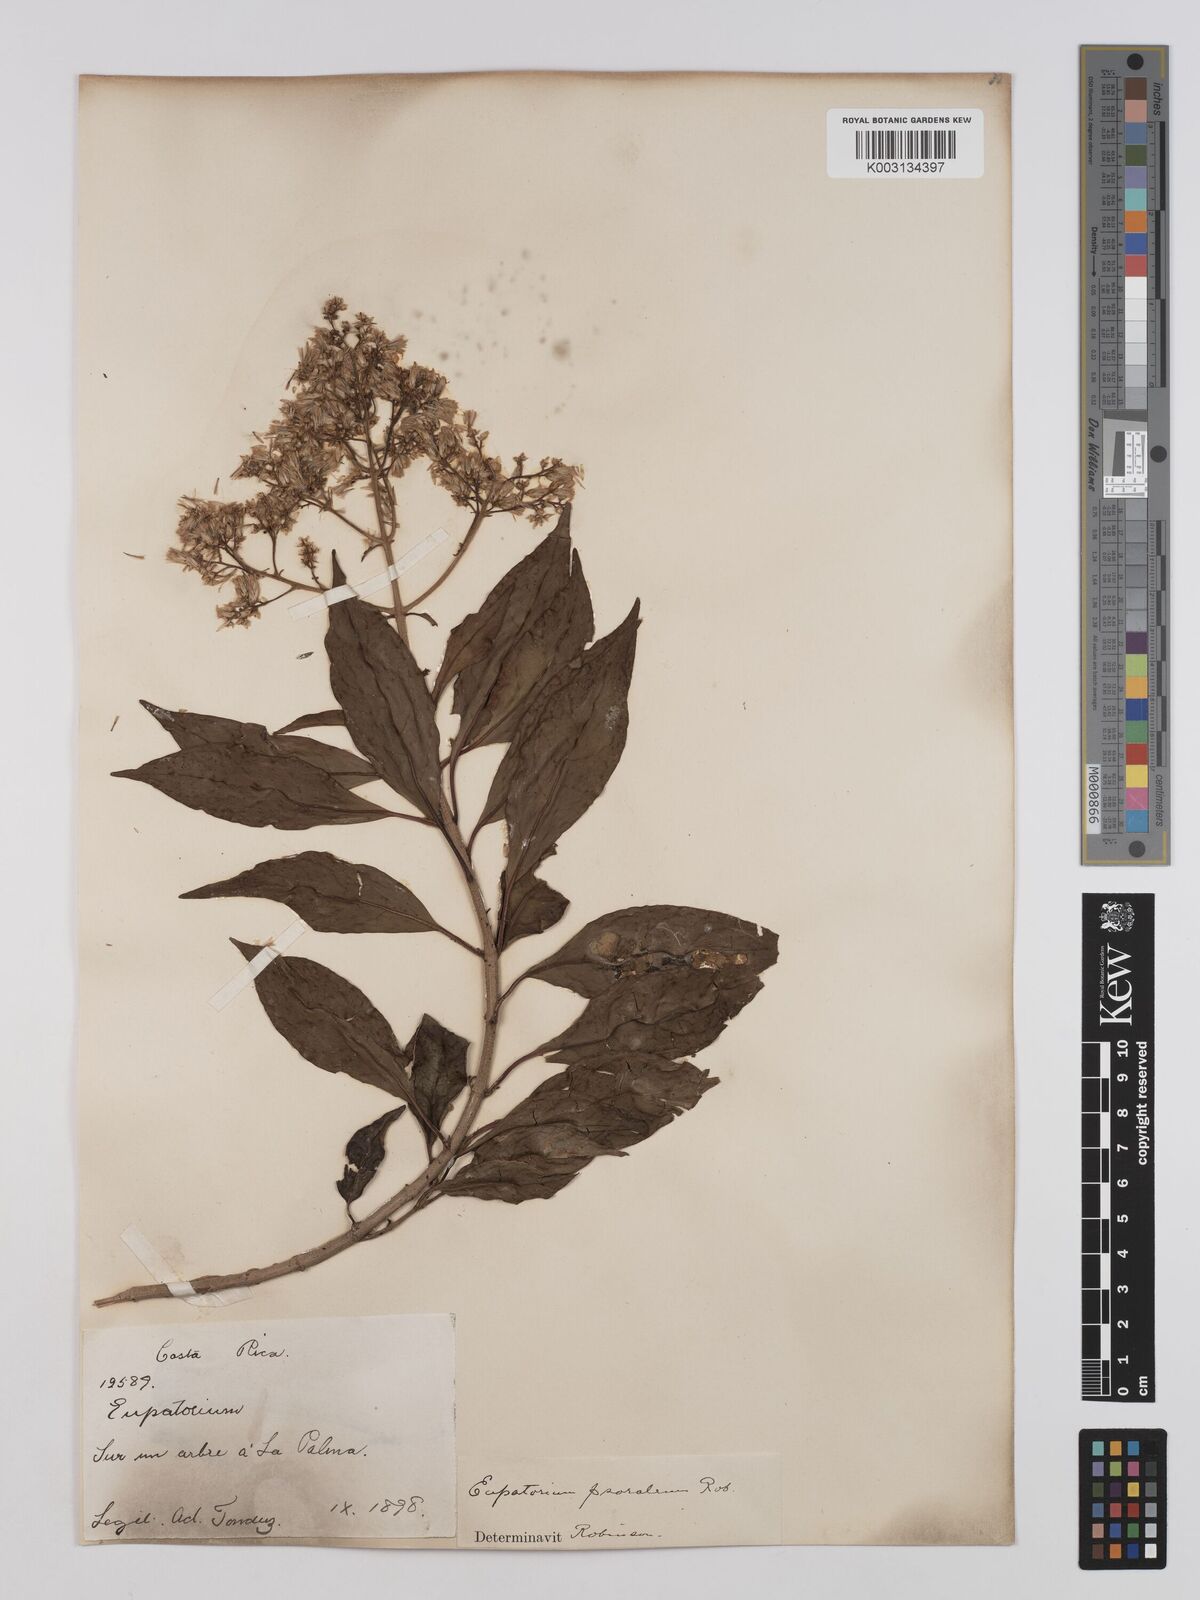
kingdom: Plantae
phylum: Tracheophyta
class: Magnoliopsida
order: Asterales
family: Asteraceae
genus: Neomirandea
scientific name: Neomirandea psoralea
